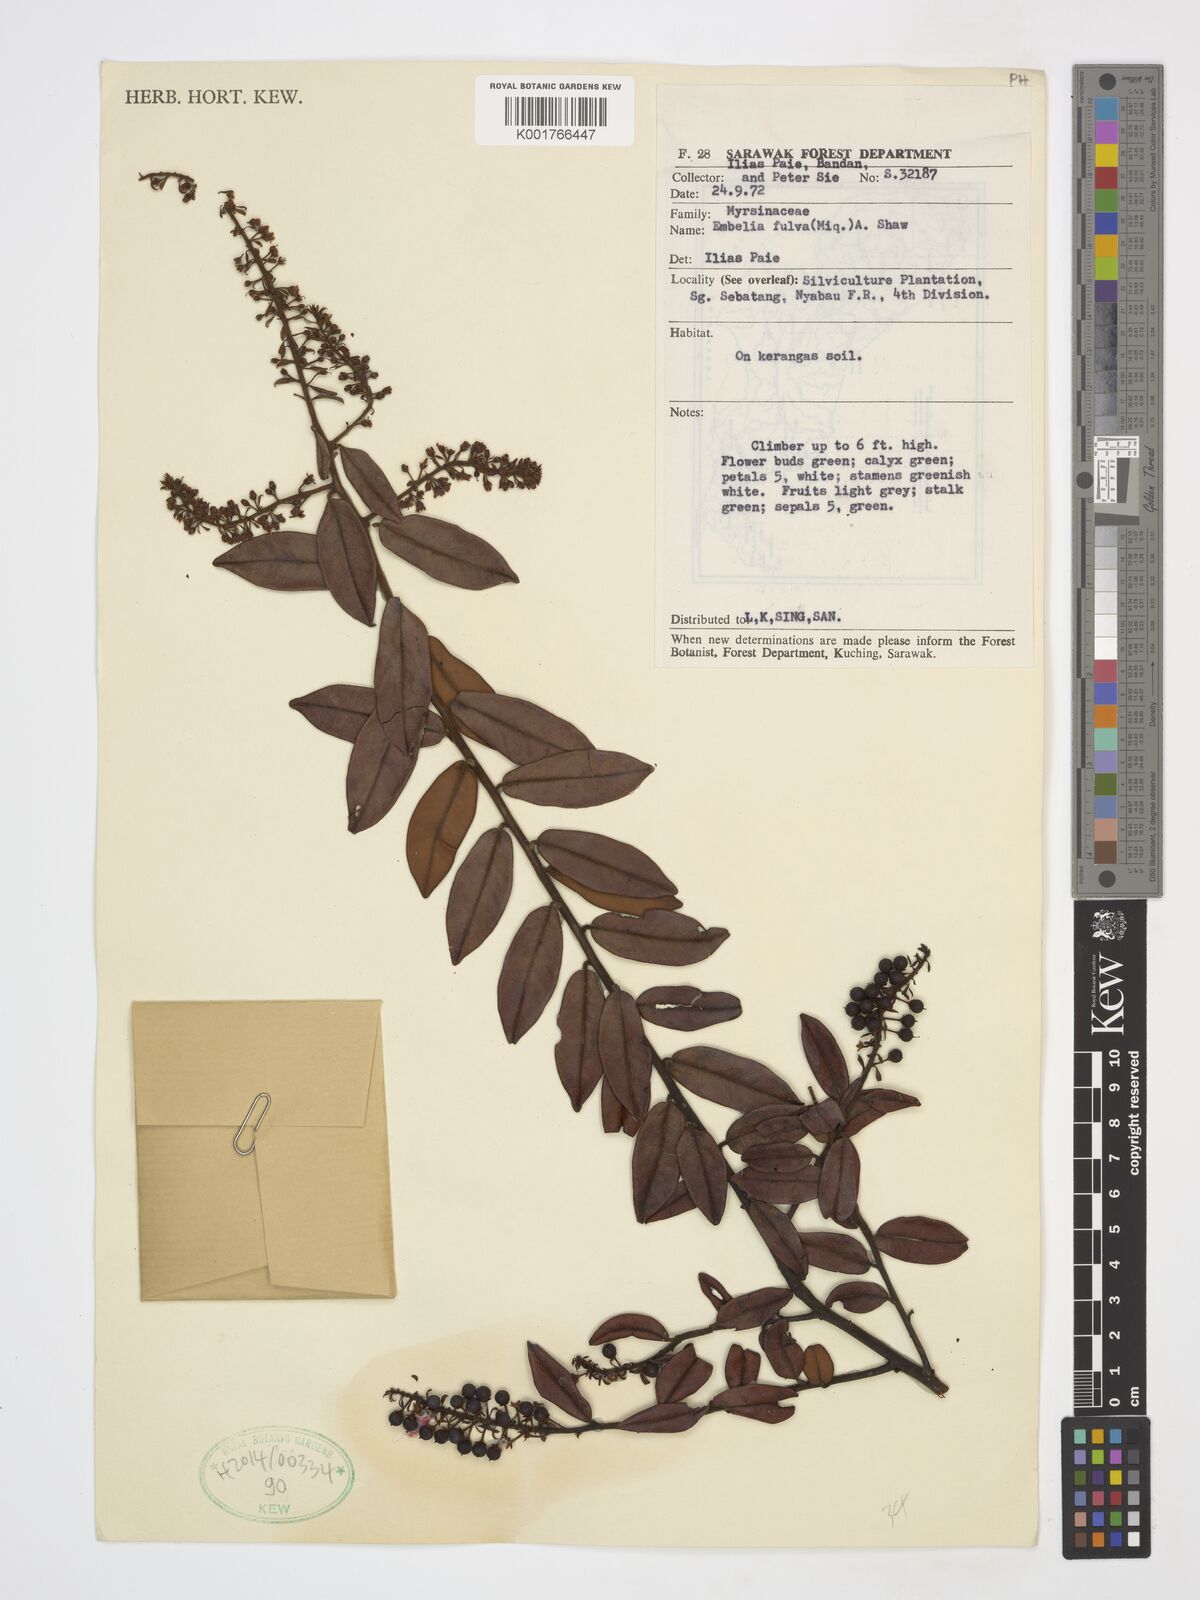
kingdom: Plantae
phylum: Tracheophyta
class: Magnoliopsida
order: Ericales
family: Primulaceae
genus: Grenacheria
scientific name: Grenacheria fulva
